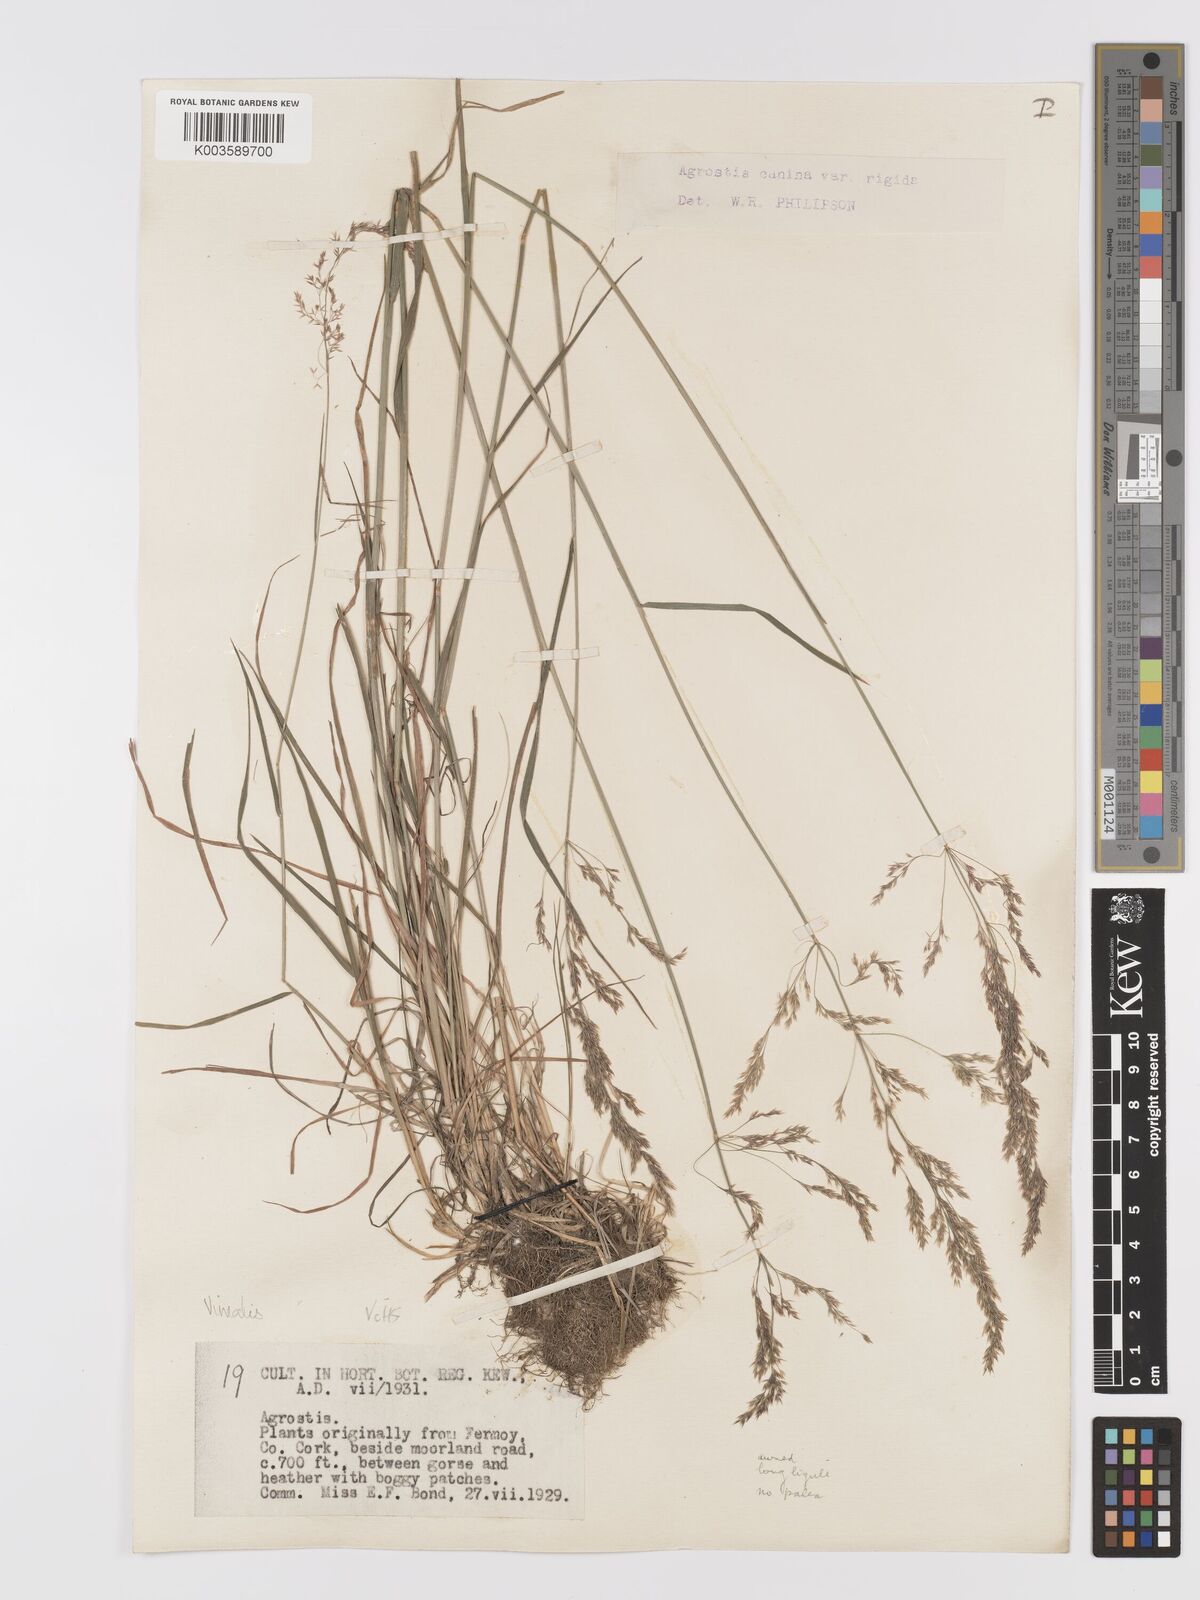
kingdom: Plantae
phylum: Tracheophyta
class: Liliopsida
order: Poales
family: Poaceae
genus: Agrostis
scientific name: Agrostis
